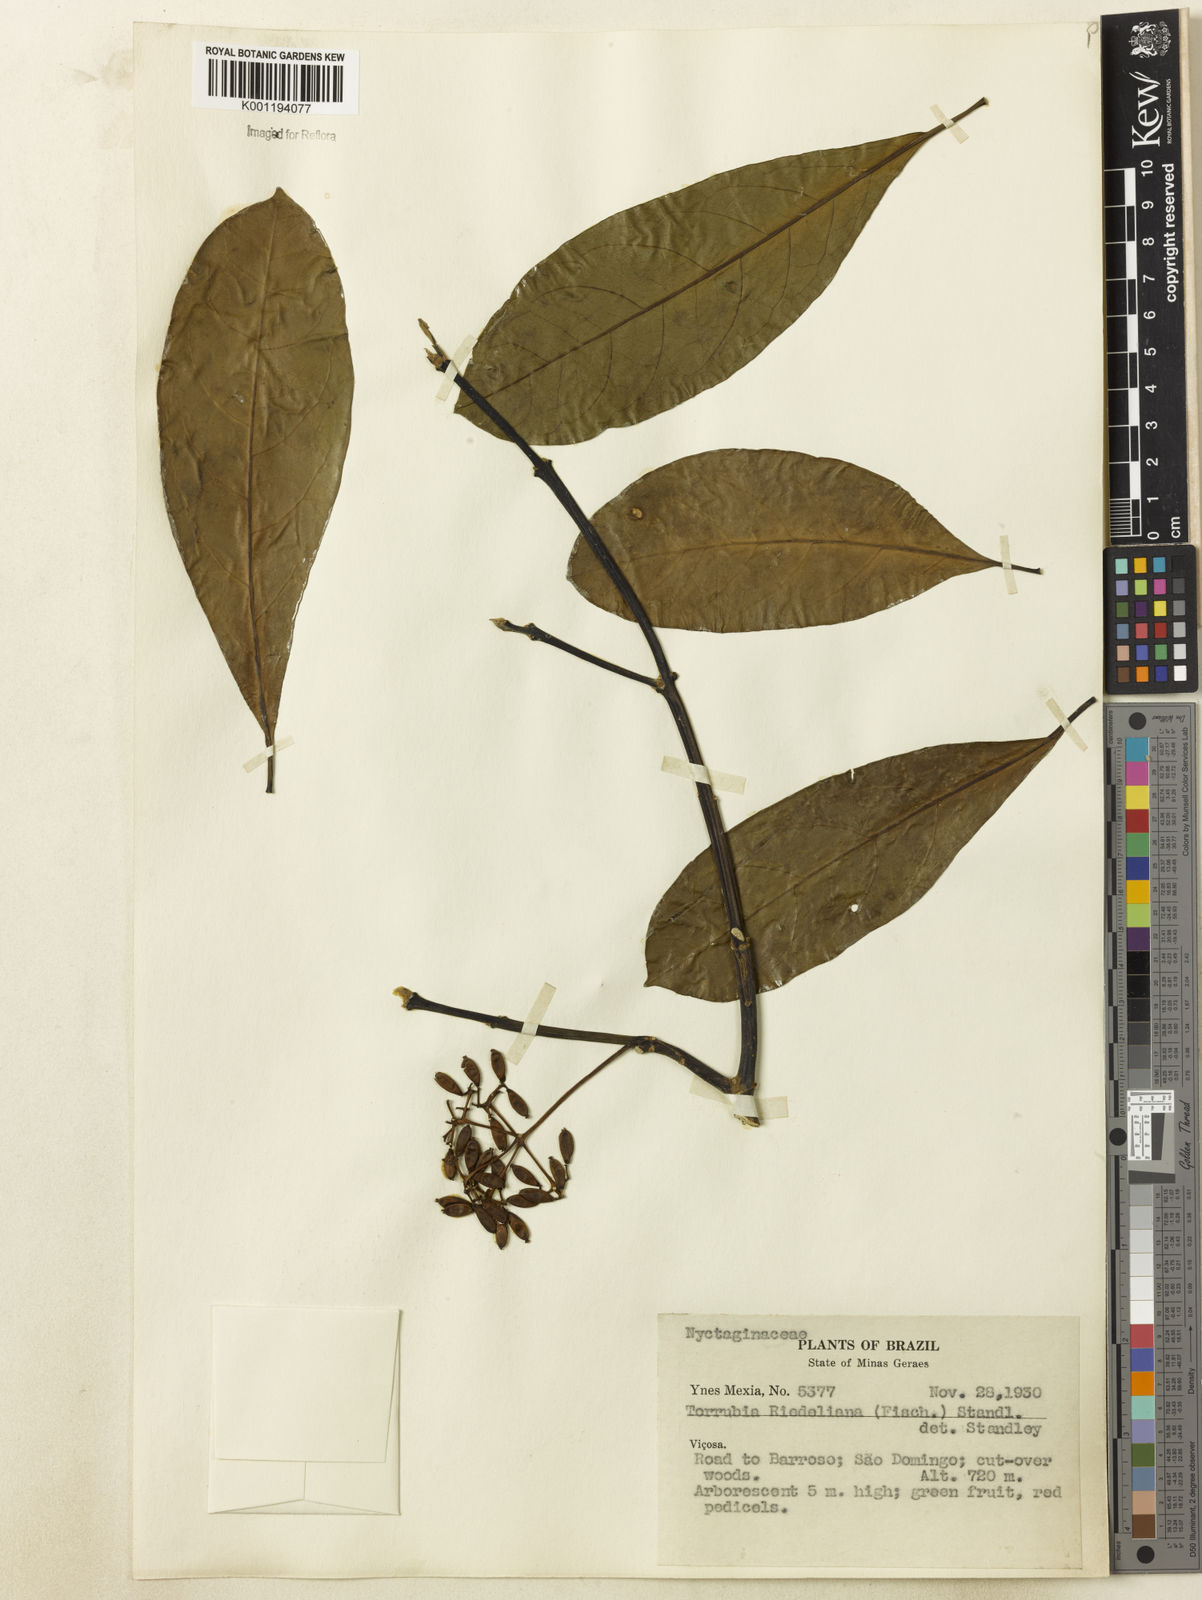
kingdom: Plantae
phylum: Tracheophyta
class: Magnoliopsida
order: Caryophyllales
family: Nyctaginaceae
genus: Guapira
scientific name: Guapira riedeliana
